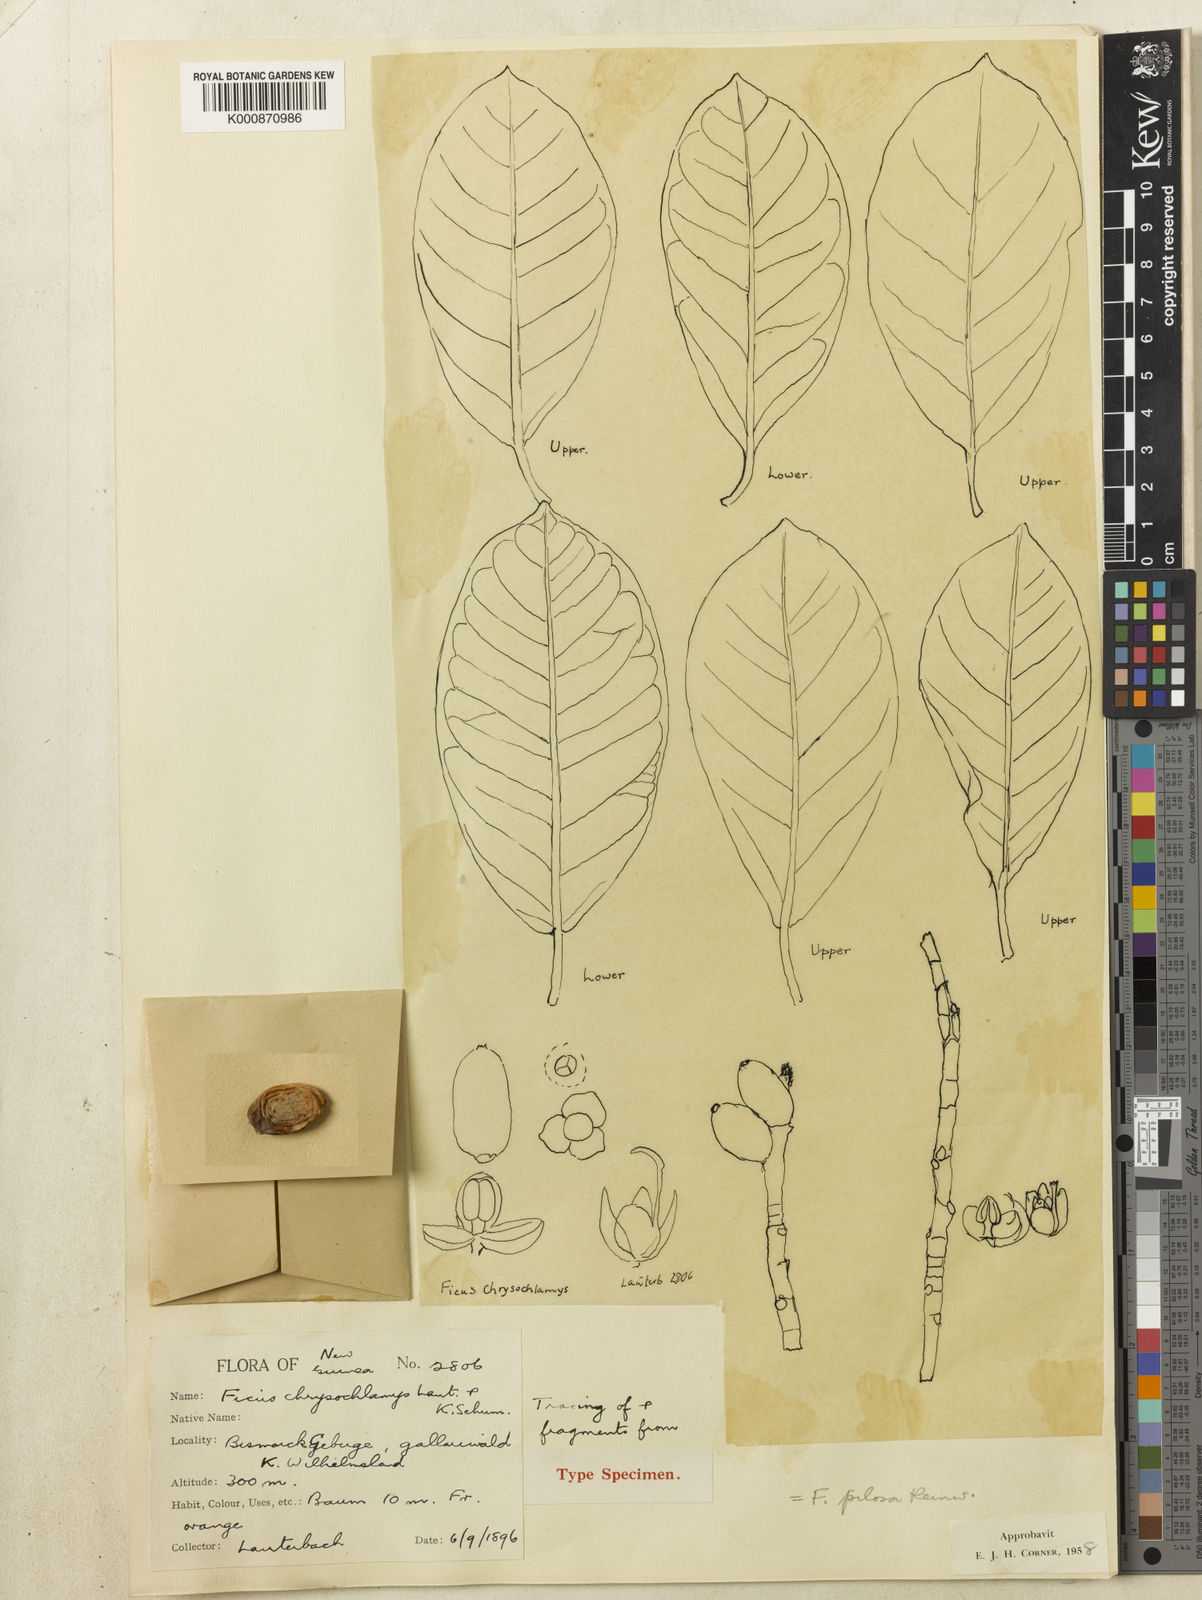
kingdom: Plantae
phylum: Tracheophyta
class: Magnoliopsida
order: Rosales
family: Moraceae
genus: Ficus
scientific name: Ficus drupacea
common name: Drupe fig
